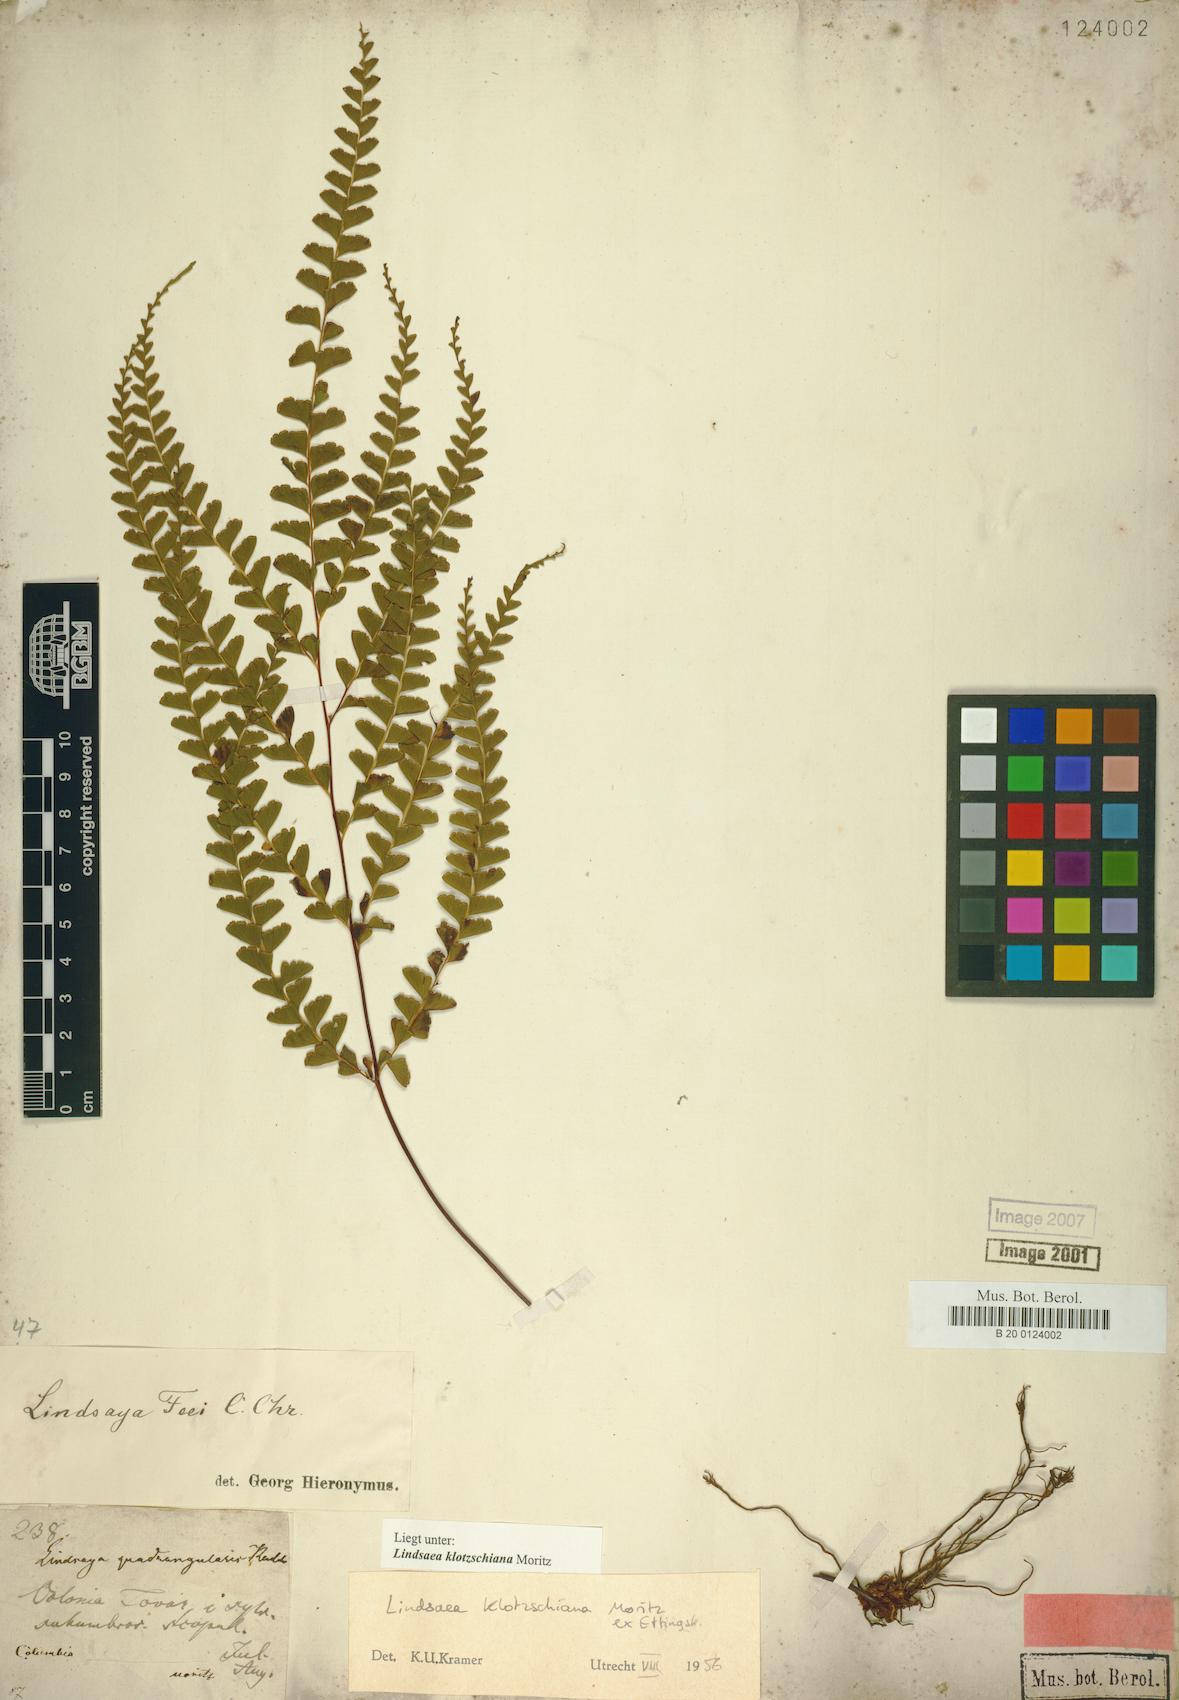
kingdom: Plantae
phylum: Tracheophyta
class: Polypodiopsida
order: Polypodiales
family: Lindsaeaceae
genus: Lindsaea
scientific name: Lindsaea feei
